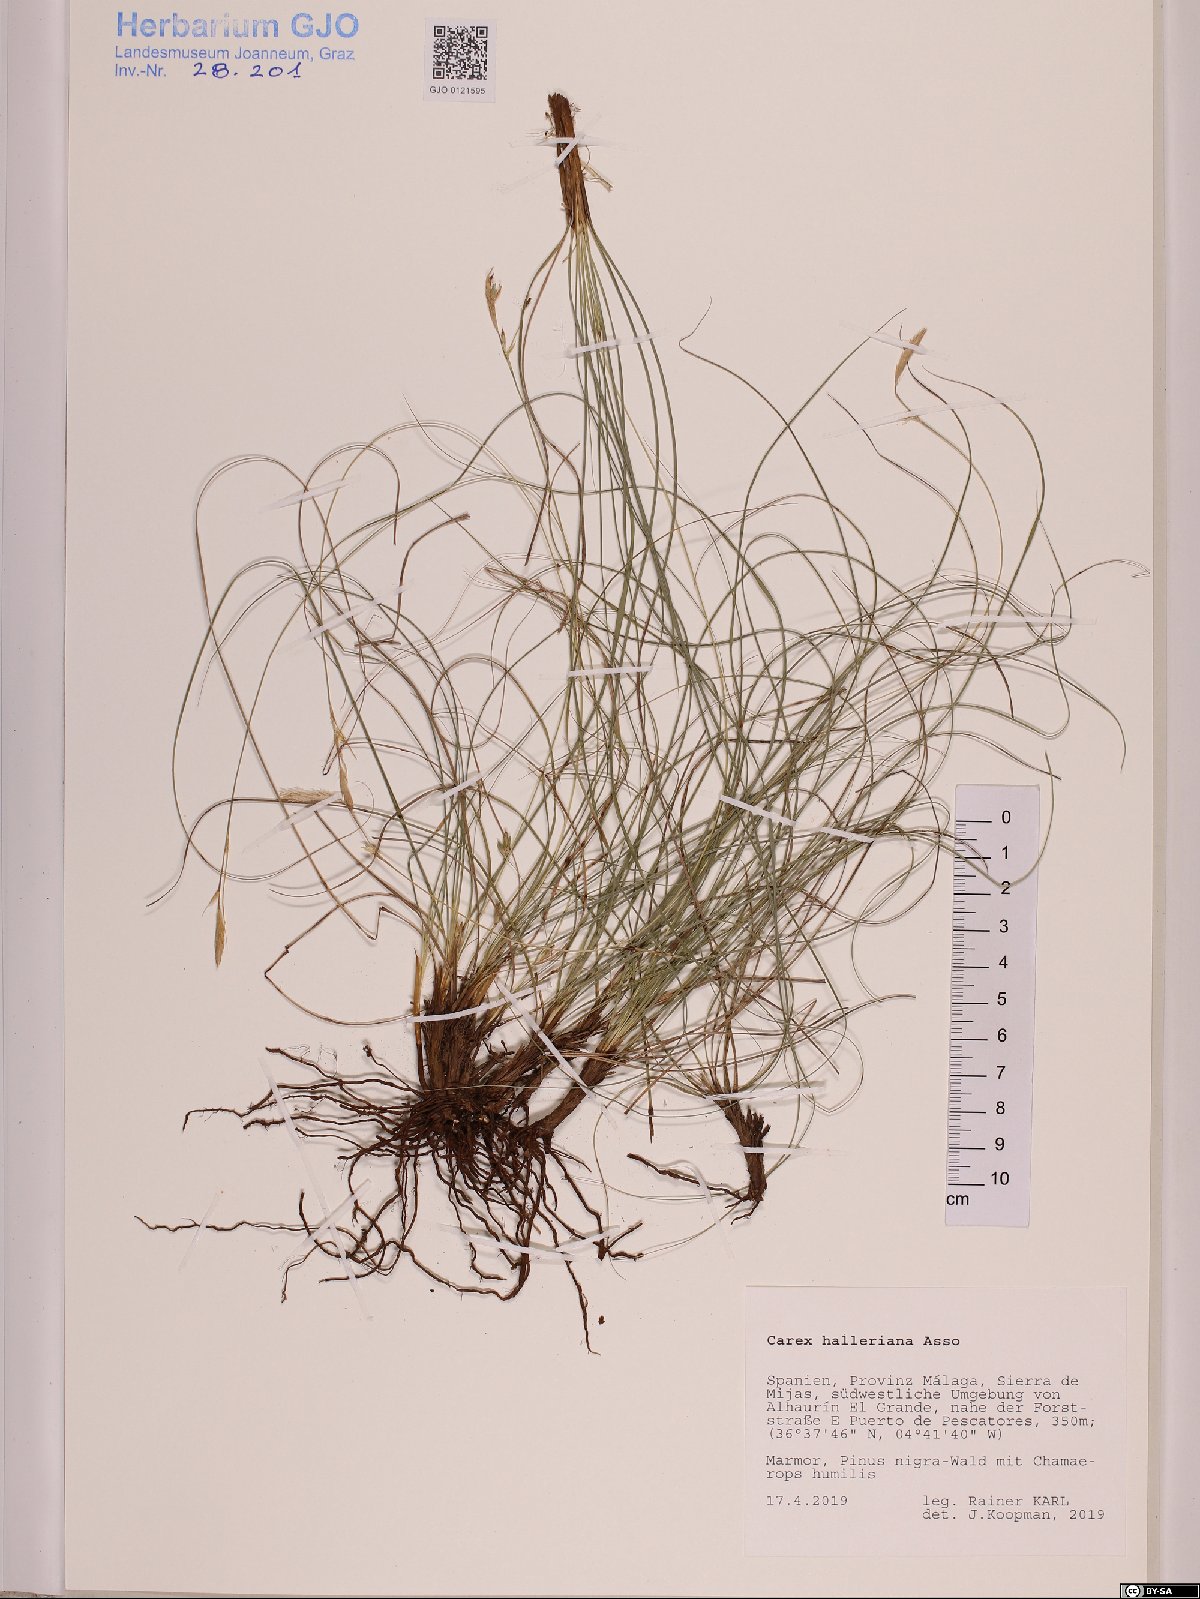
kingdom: Plantae
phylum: Tracheophyta
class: Liliopsida
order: Poales
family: Cyperaceae
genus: Carex
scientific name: Carex halleriana
